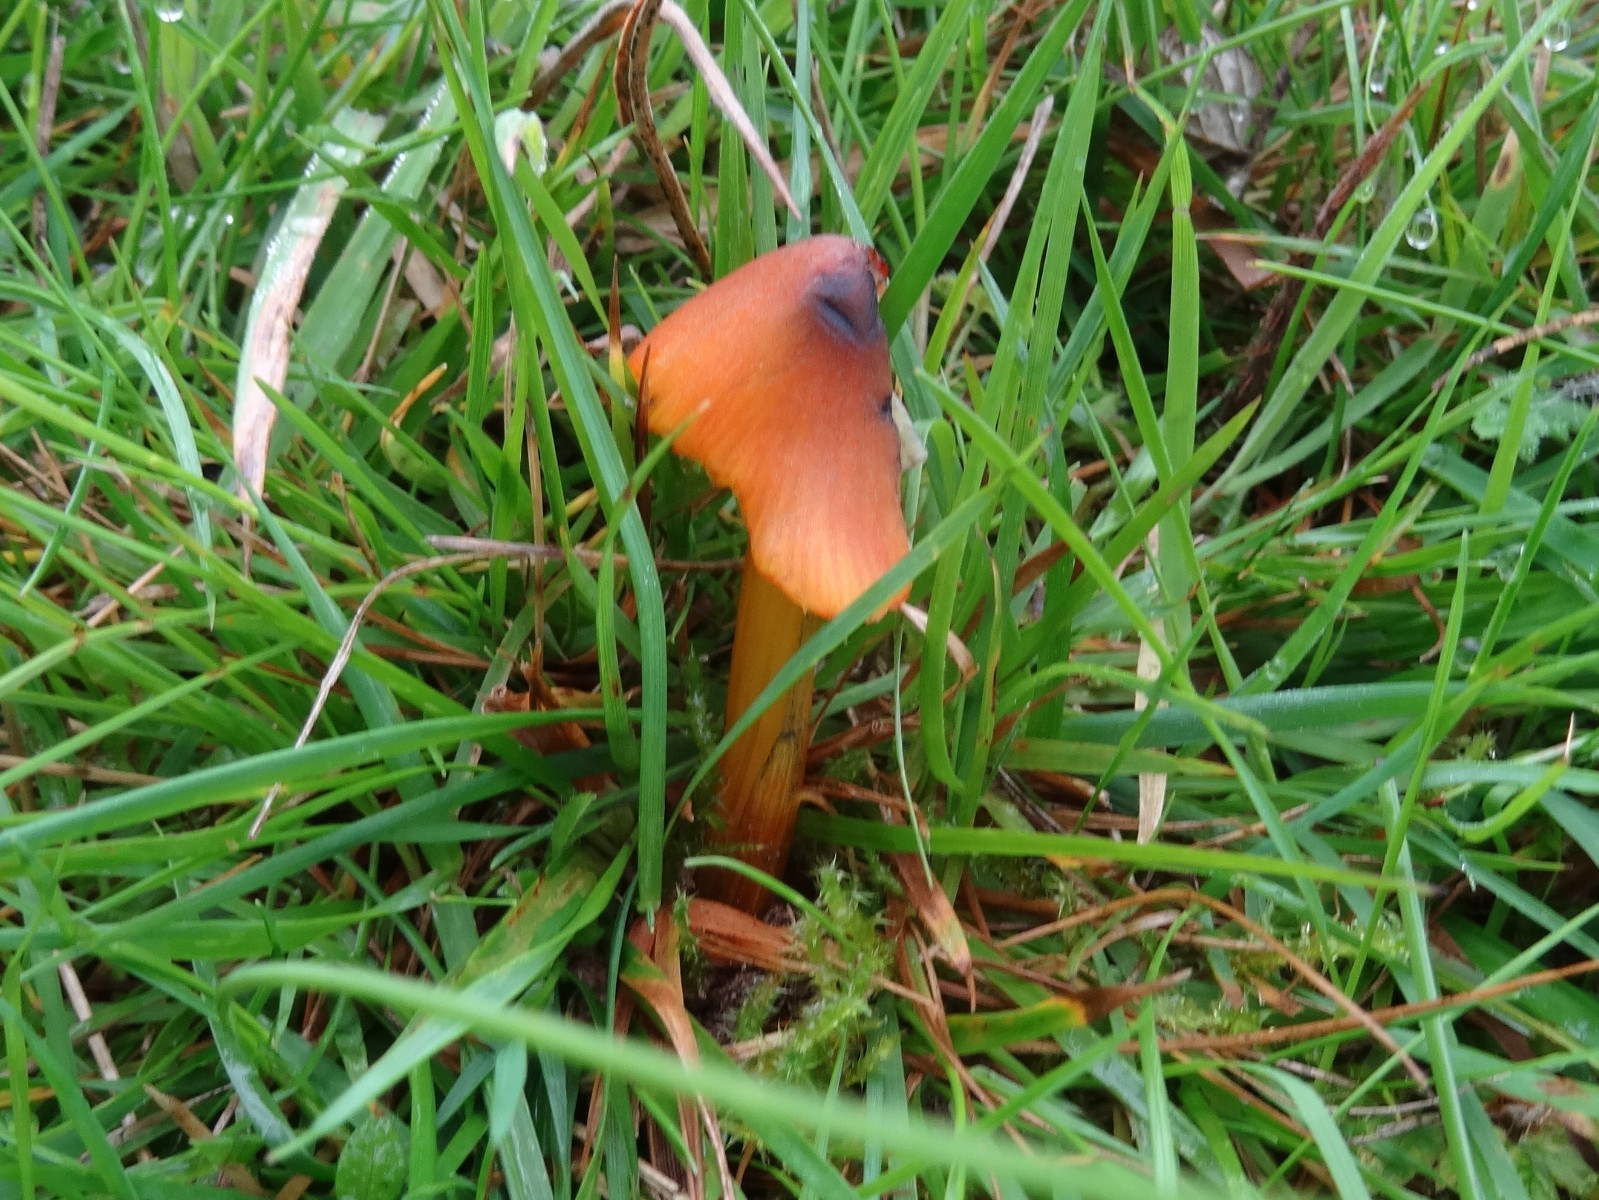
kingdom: Fungi
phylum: Basidiomycota
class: Agaricomycetes
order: Agaricales
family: Hygrophoraceae
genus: Hygrocybe
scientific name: Hygrocybe conica
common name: kegle-vokshat
